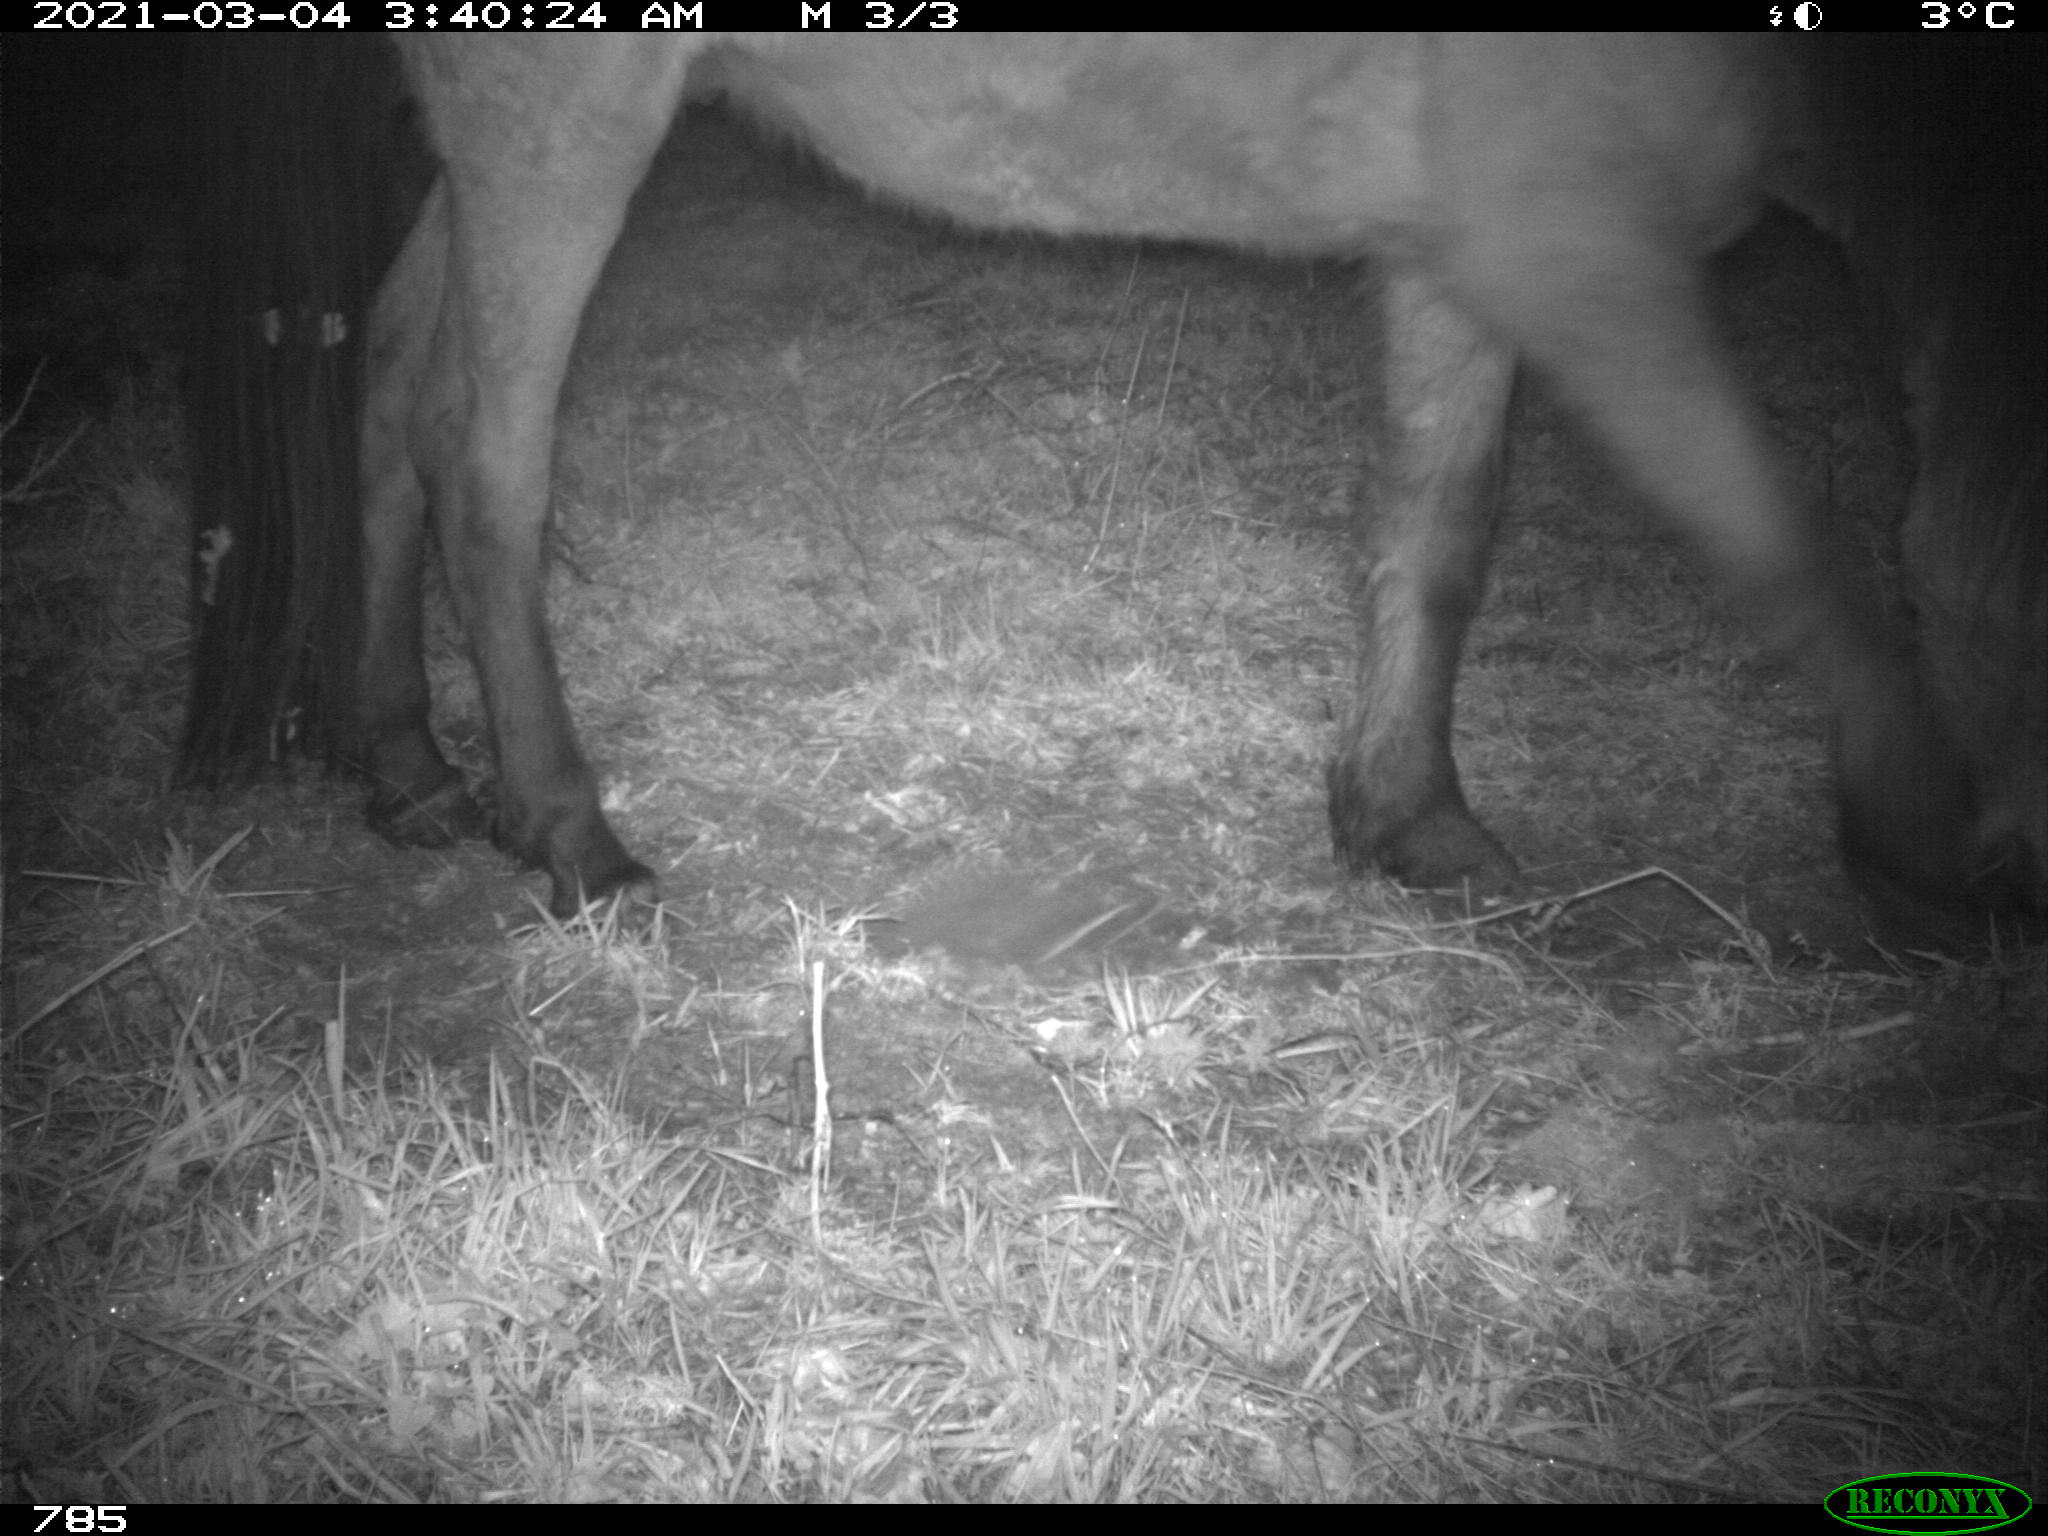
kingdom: Animalia
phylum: Chordata
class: Mammalia
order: Perissodactyla
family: Equidae
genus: Equus
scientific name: Equus caballus
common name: Horse
